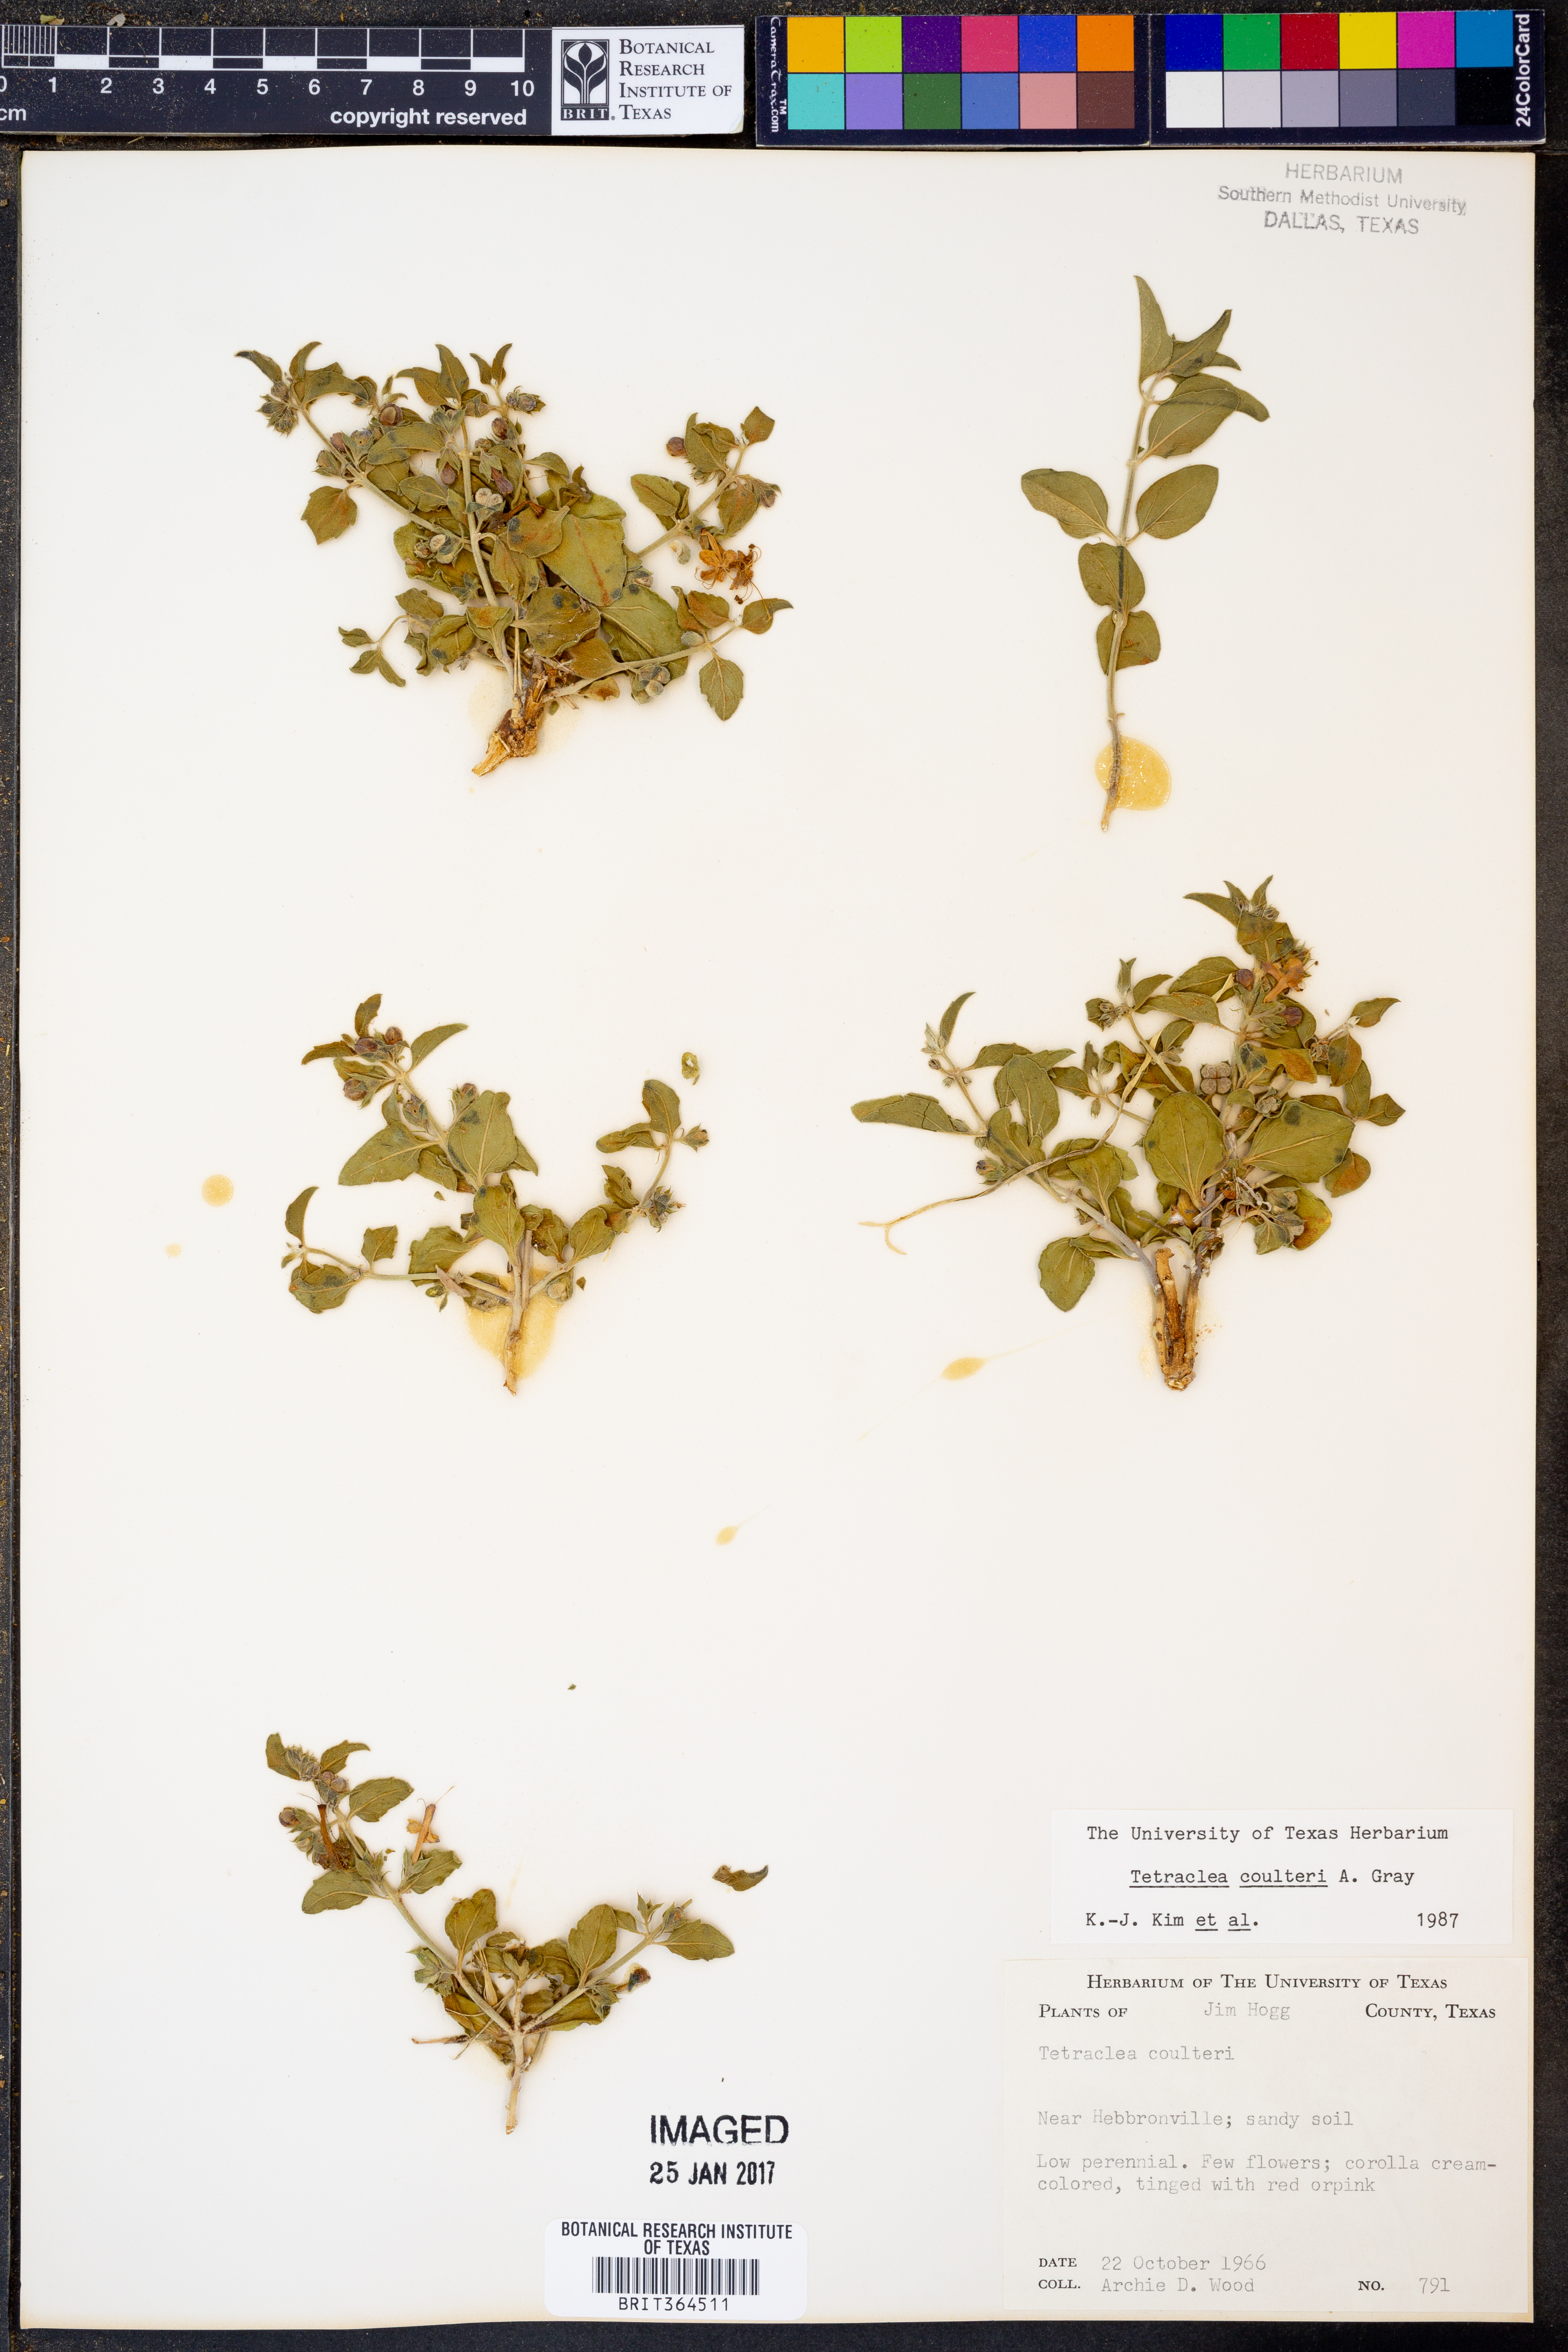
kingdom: Plantae
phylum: Tracheophyta
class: Magnoliopsida
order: Lamiales
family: Lamiaceae
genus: Tetraclea
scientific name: Tetraclea coulteri
